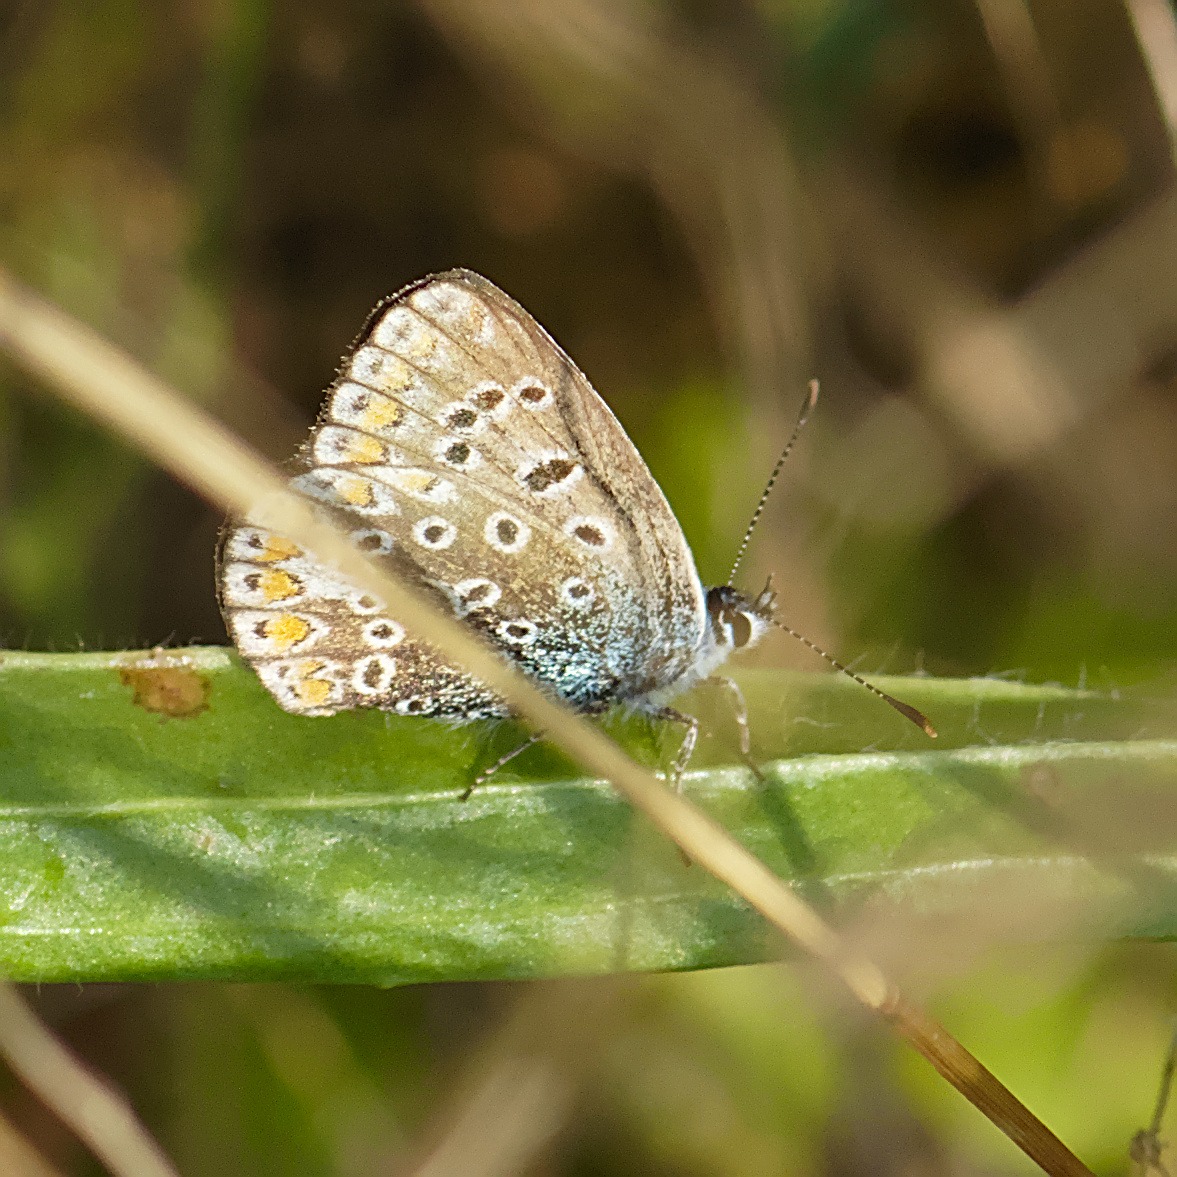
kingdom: Animalia
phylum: Arthropoda
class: Insecta
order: Lepidoptera
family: Lycaenidae
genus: Polyommatus
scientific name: Polyommatus icarus
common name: Almindelig blåfugl
